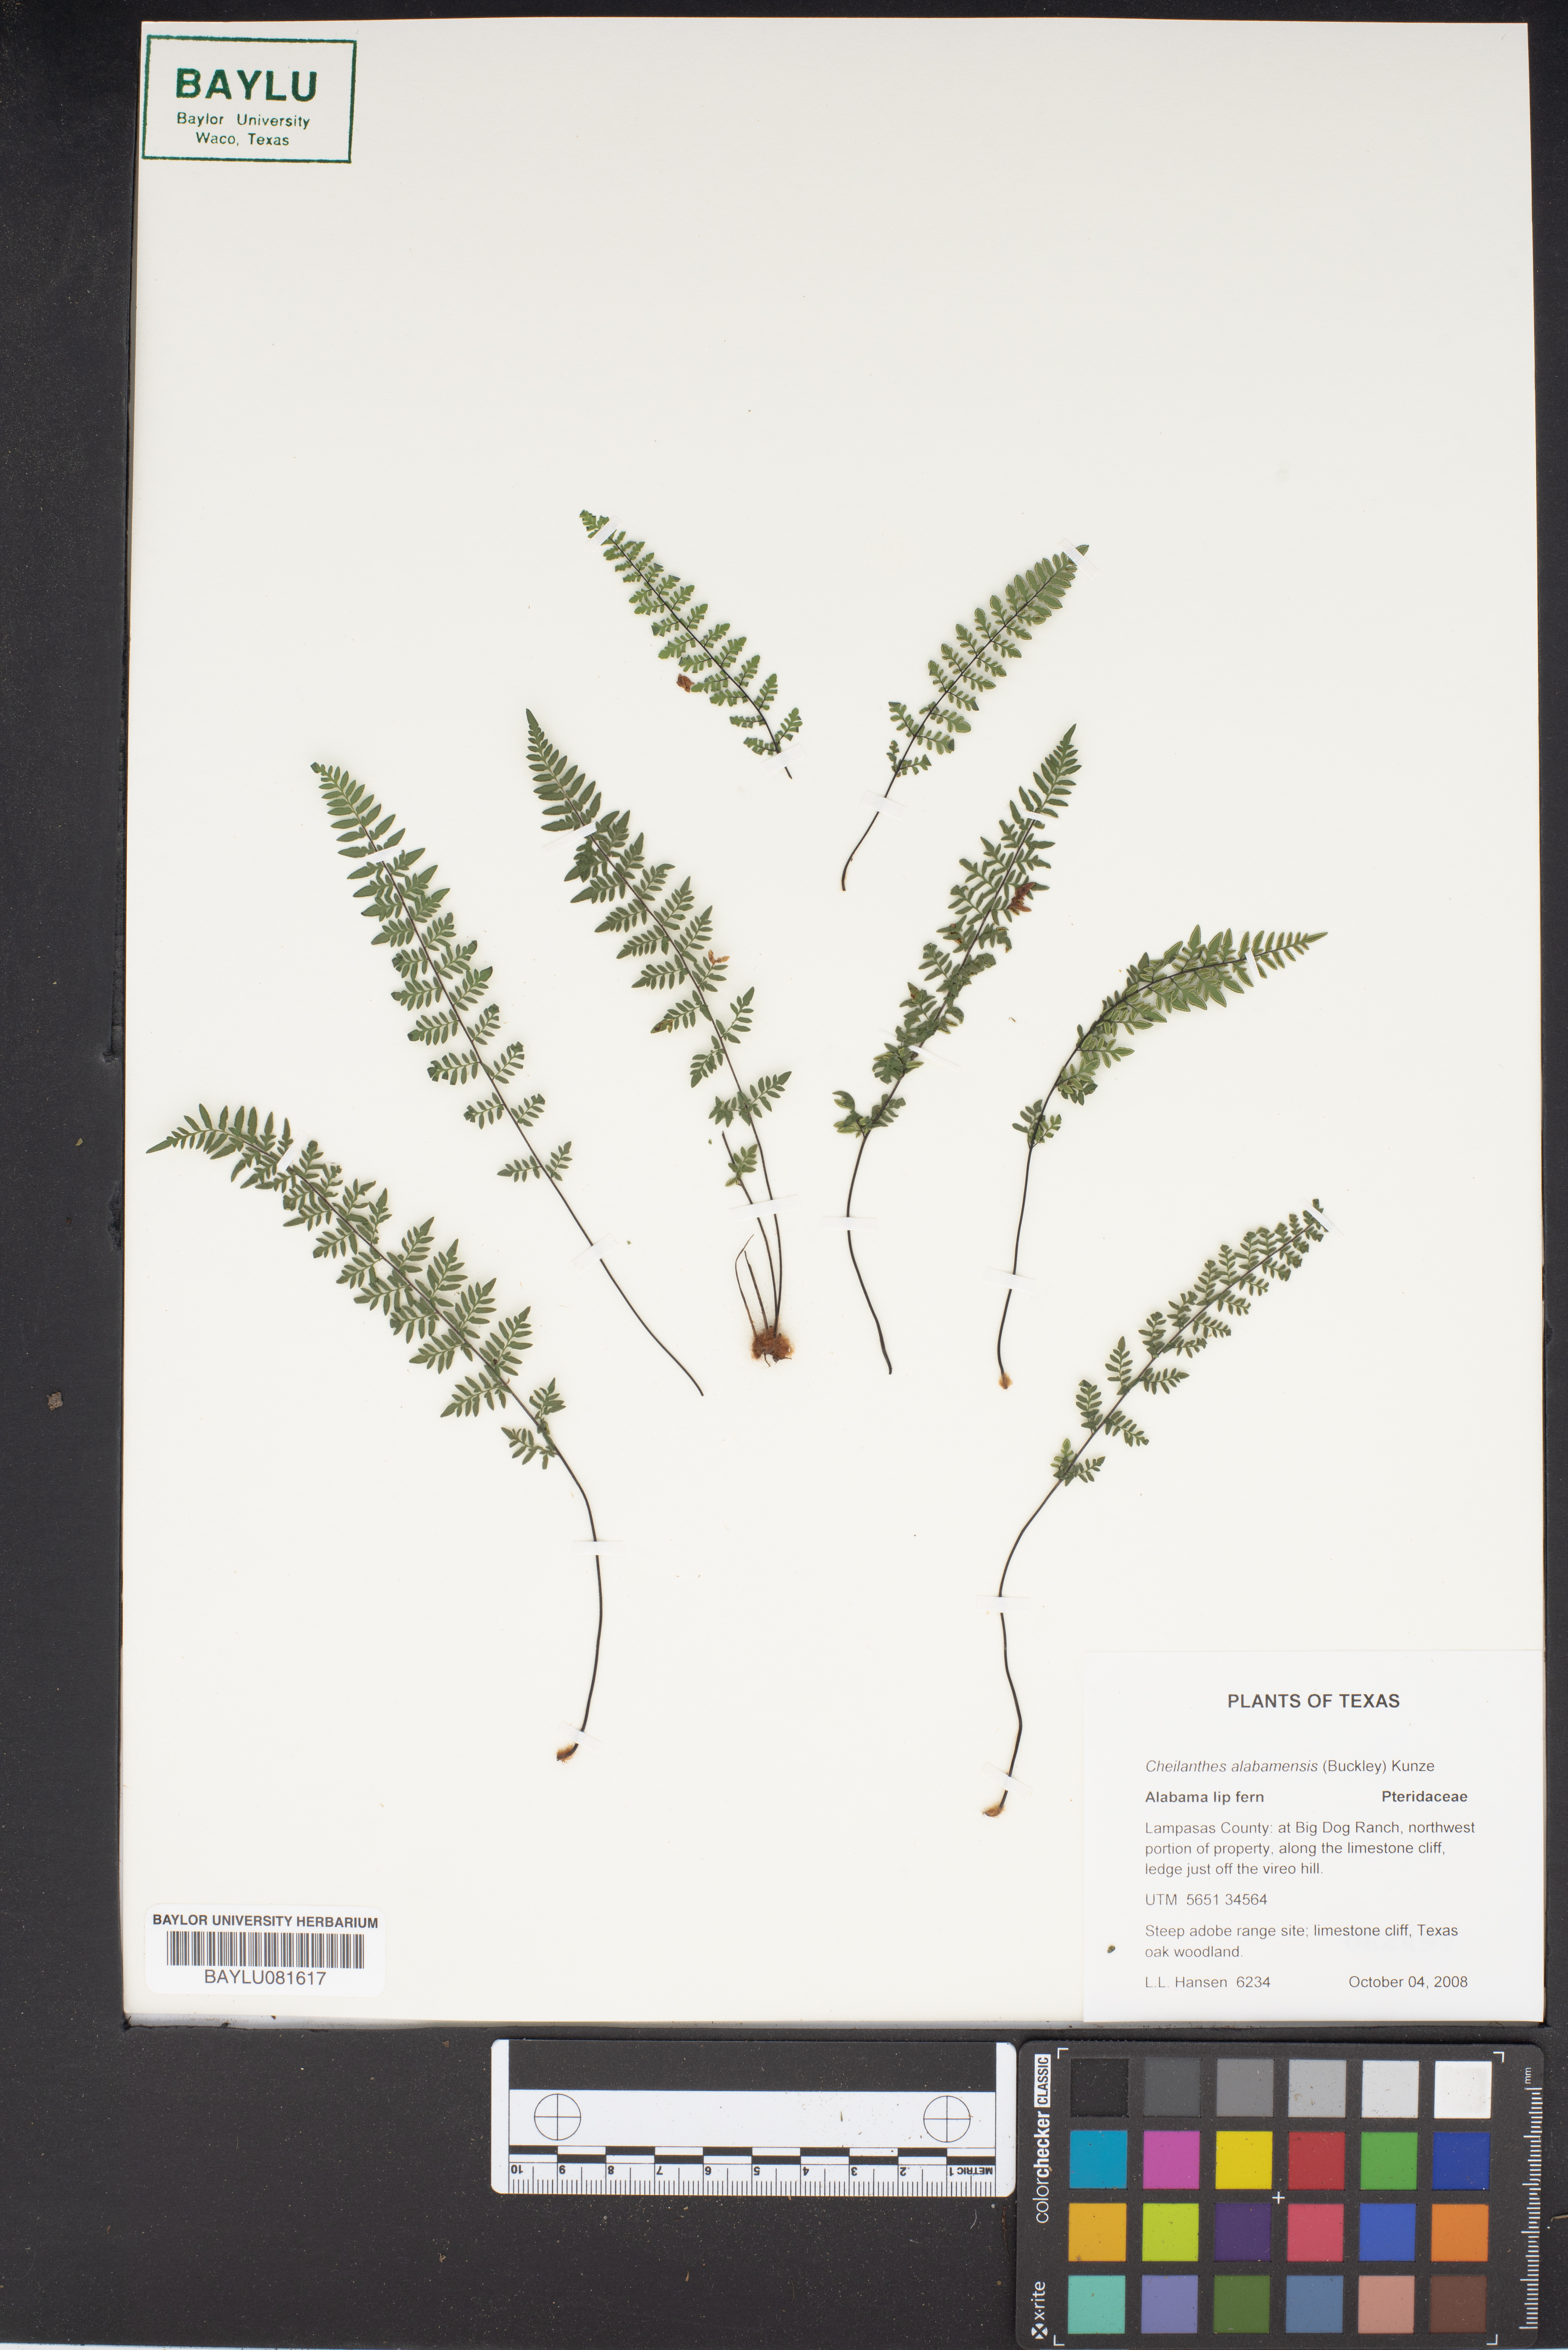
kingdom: Plantae
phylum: Tracheophyta
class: Polypodiopsida
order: Polypodiales
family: Pteridaceae
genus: Myriopteris
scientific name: Myriopteris alabamensis
